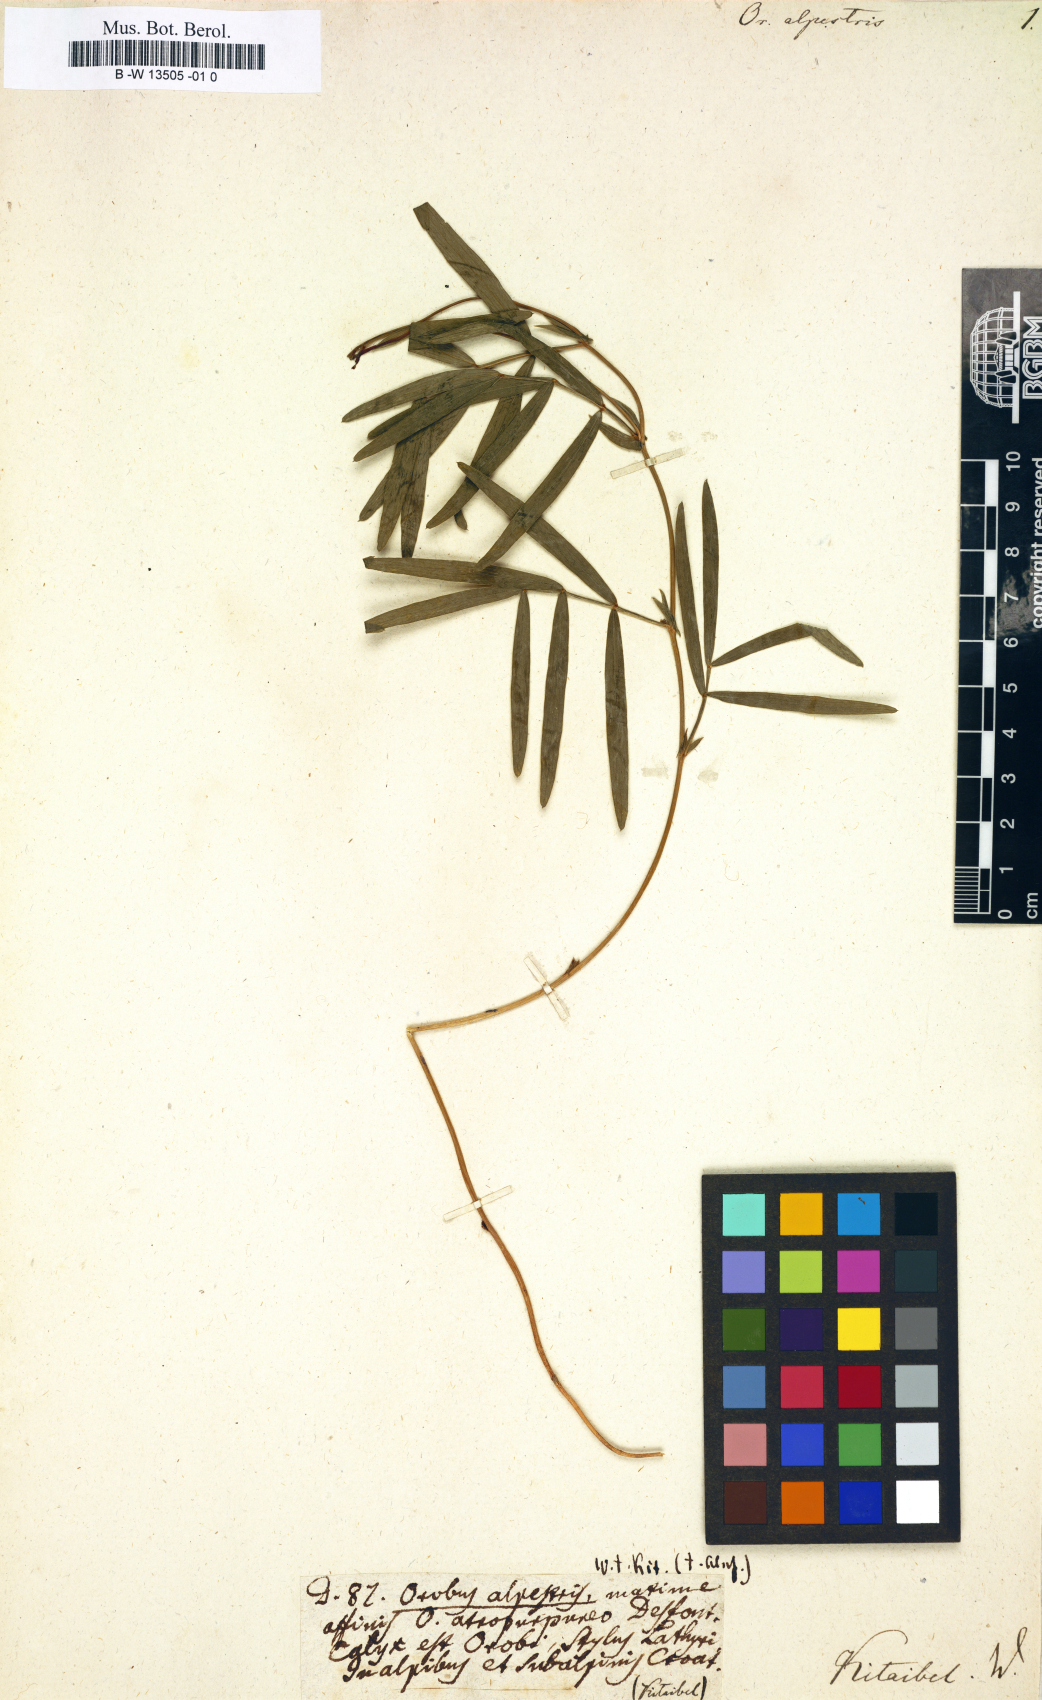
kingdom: Plantae
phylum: Tracheophyta
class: Magnoliopsida
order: Fabales
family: Fabaceae
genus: Lathyrus
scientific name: Lathyrus
